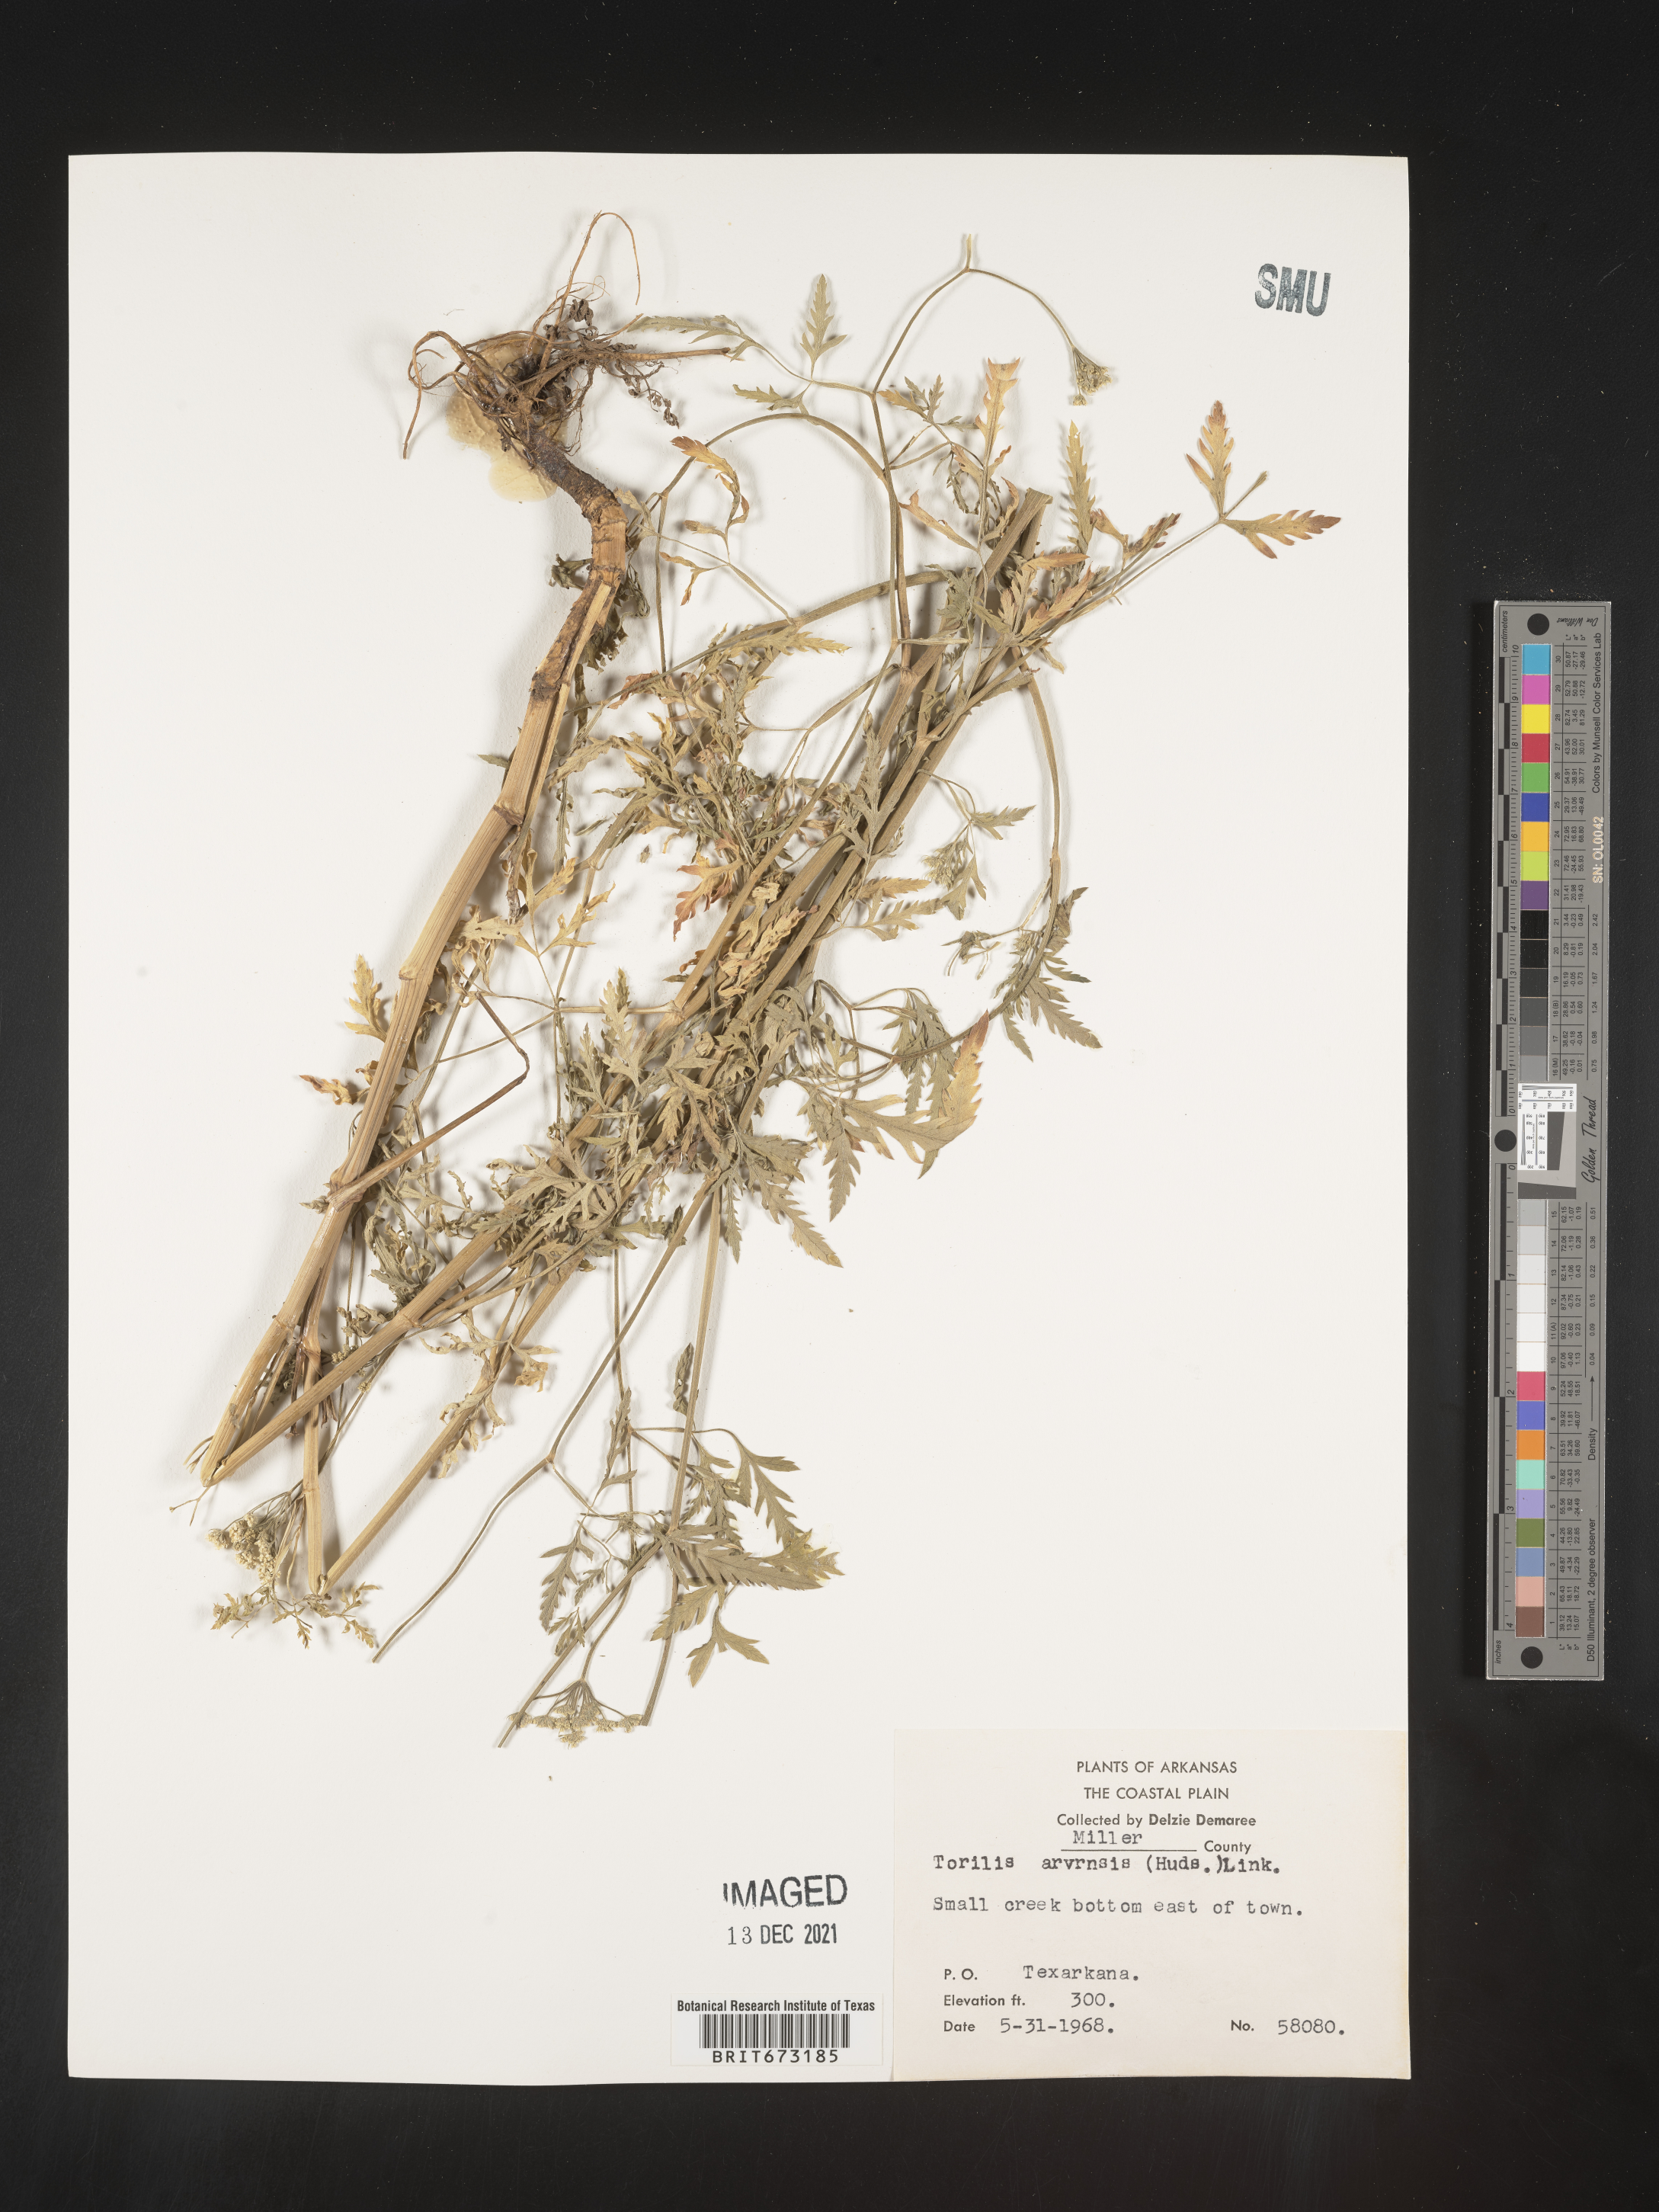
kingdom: Plantae
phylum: Tracheophyta
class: Magnoliopsida
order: Apiales
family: Apiaceae
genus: Torilis
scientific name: Torilis arvensis
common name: Spreading hedge-parsley
